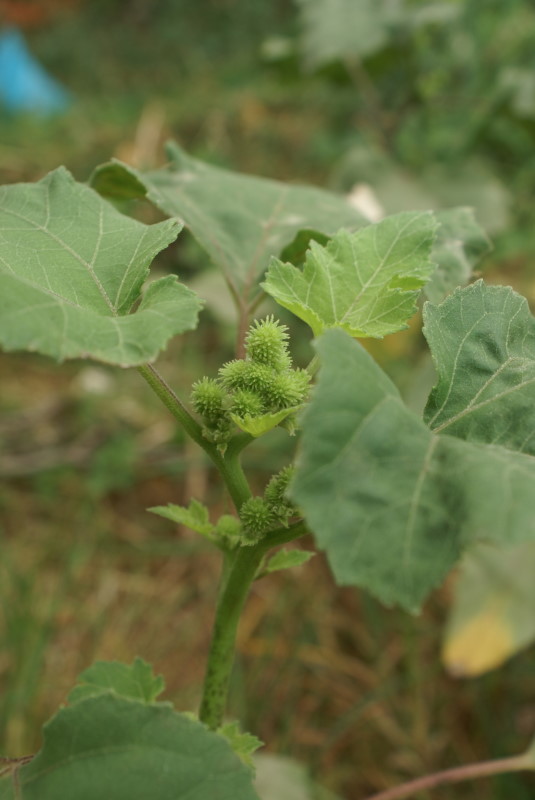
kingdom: Plantae
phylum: Tracheophyta
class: Magnoliopsida
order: Asterales
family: Asteraceae
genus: Xanthium
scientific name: Xanthium orientale
